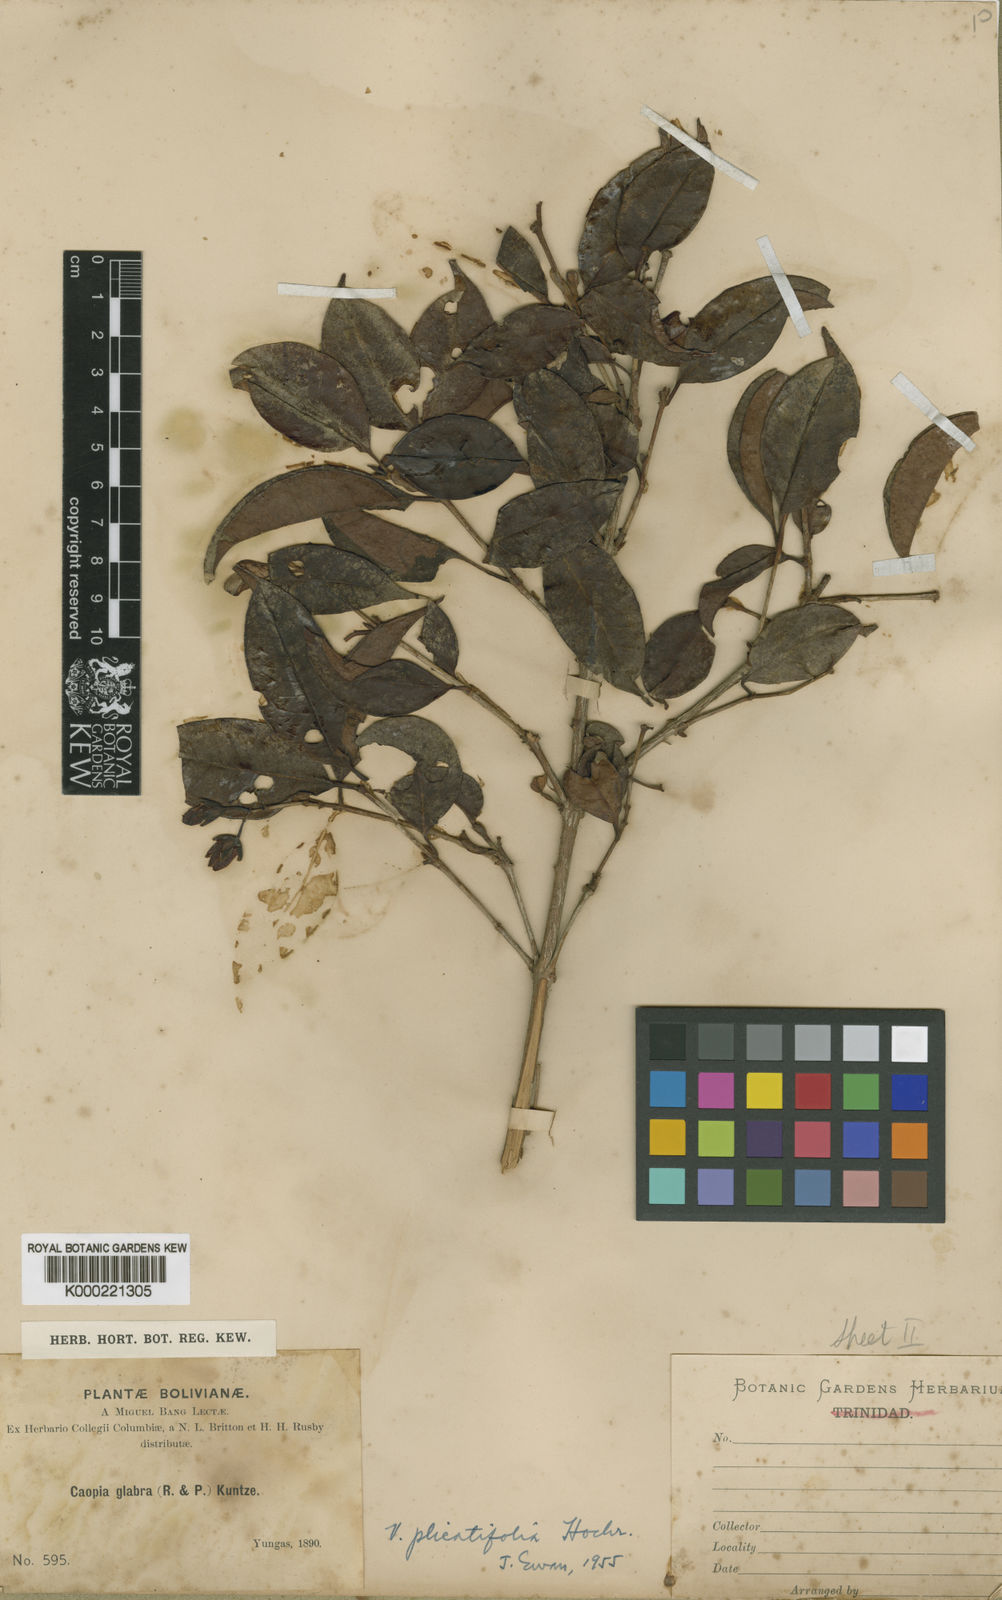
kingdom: Plantae
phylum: Tracheophyta
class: Magnoliopsida
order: Malpighiales
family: Hypericaceae
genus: Vismia
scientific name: Vismia plicatifolia
